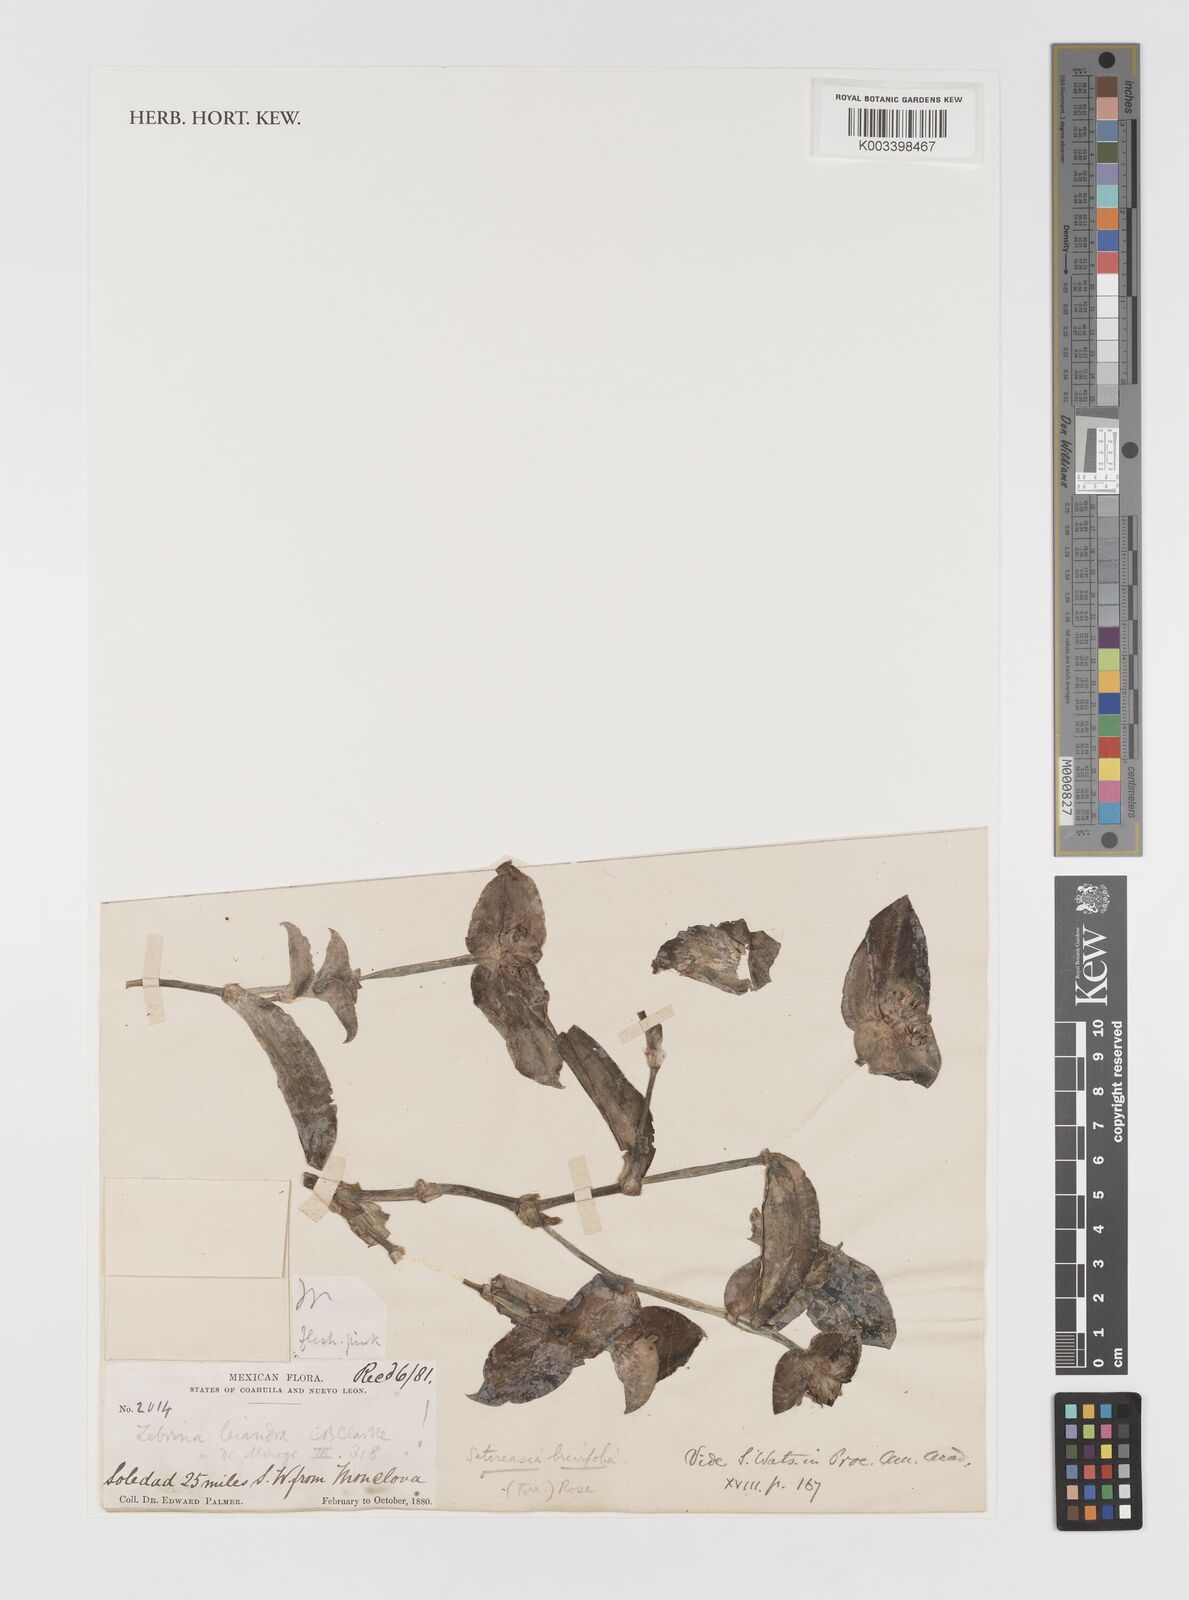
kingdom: Plantae
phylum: Tracheophyta
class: Liliopsida
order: Commelinales
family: Commelinaceae
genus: Tradescantia
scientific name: Tradescantia brevifolia
